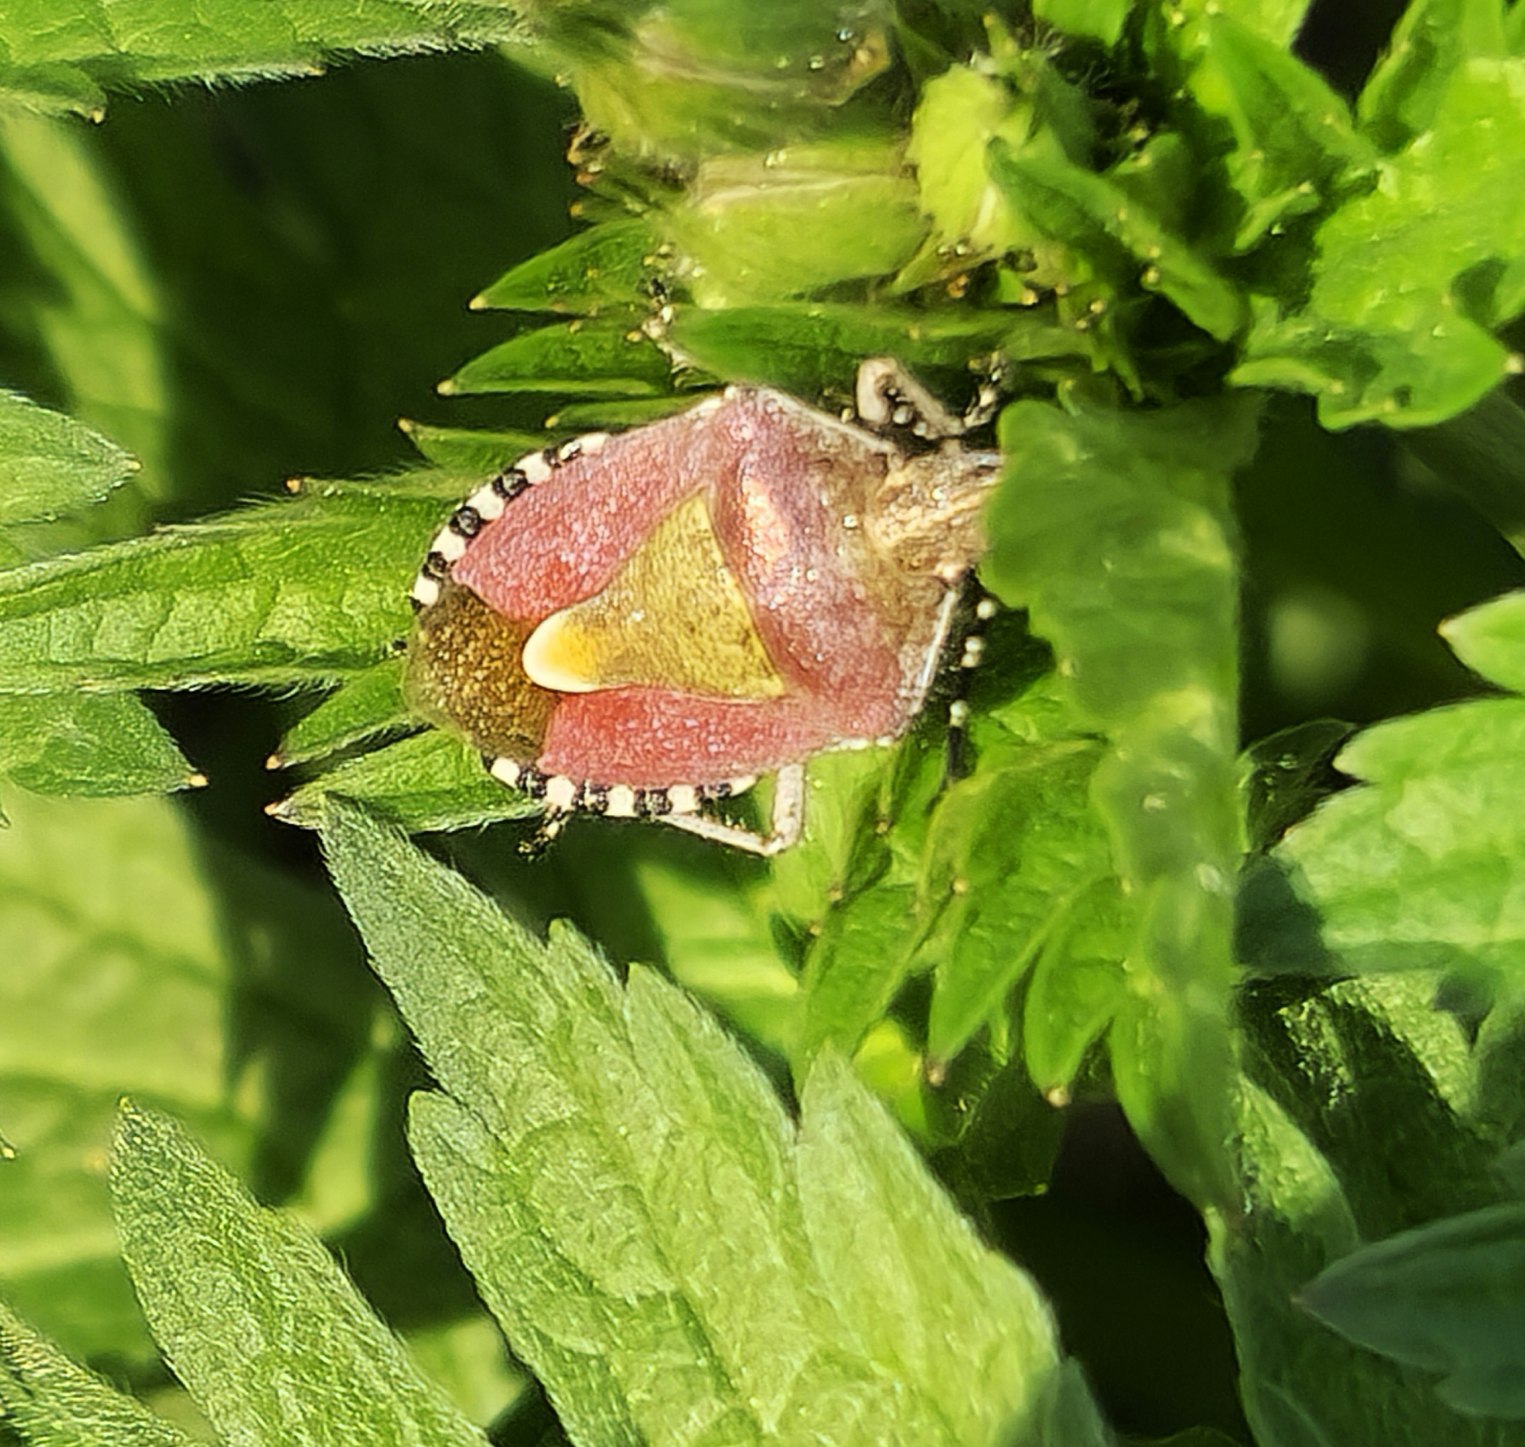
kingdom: Animalia
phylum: Arthropoda
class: Insecta
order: Hemiptera
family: Pentatomidae
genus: Dolycoris
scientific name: Dolycoris baccarum
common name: Almindelig bærtæge
